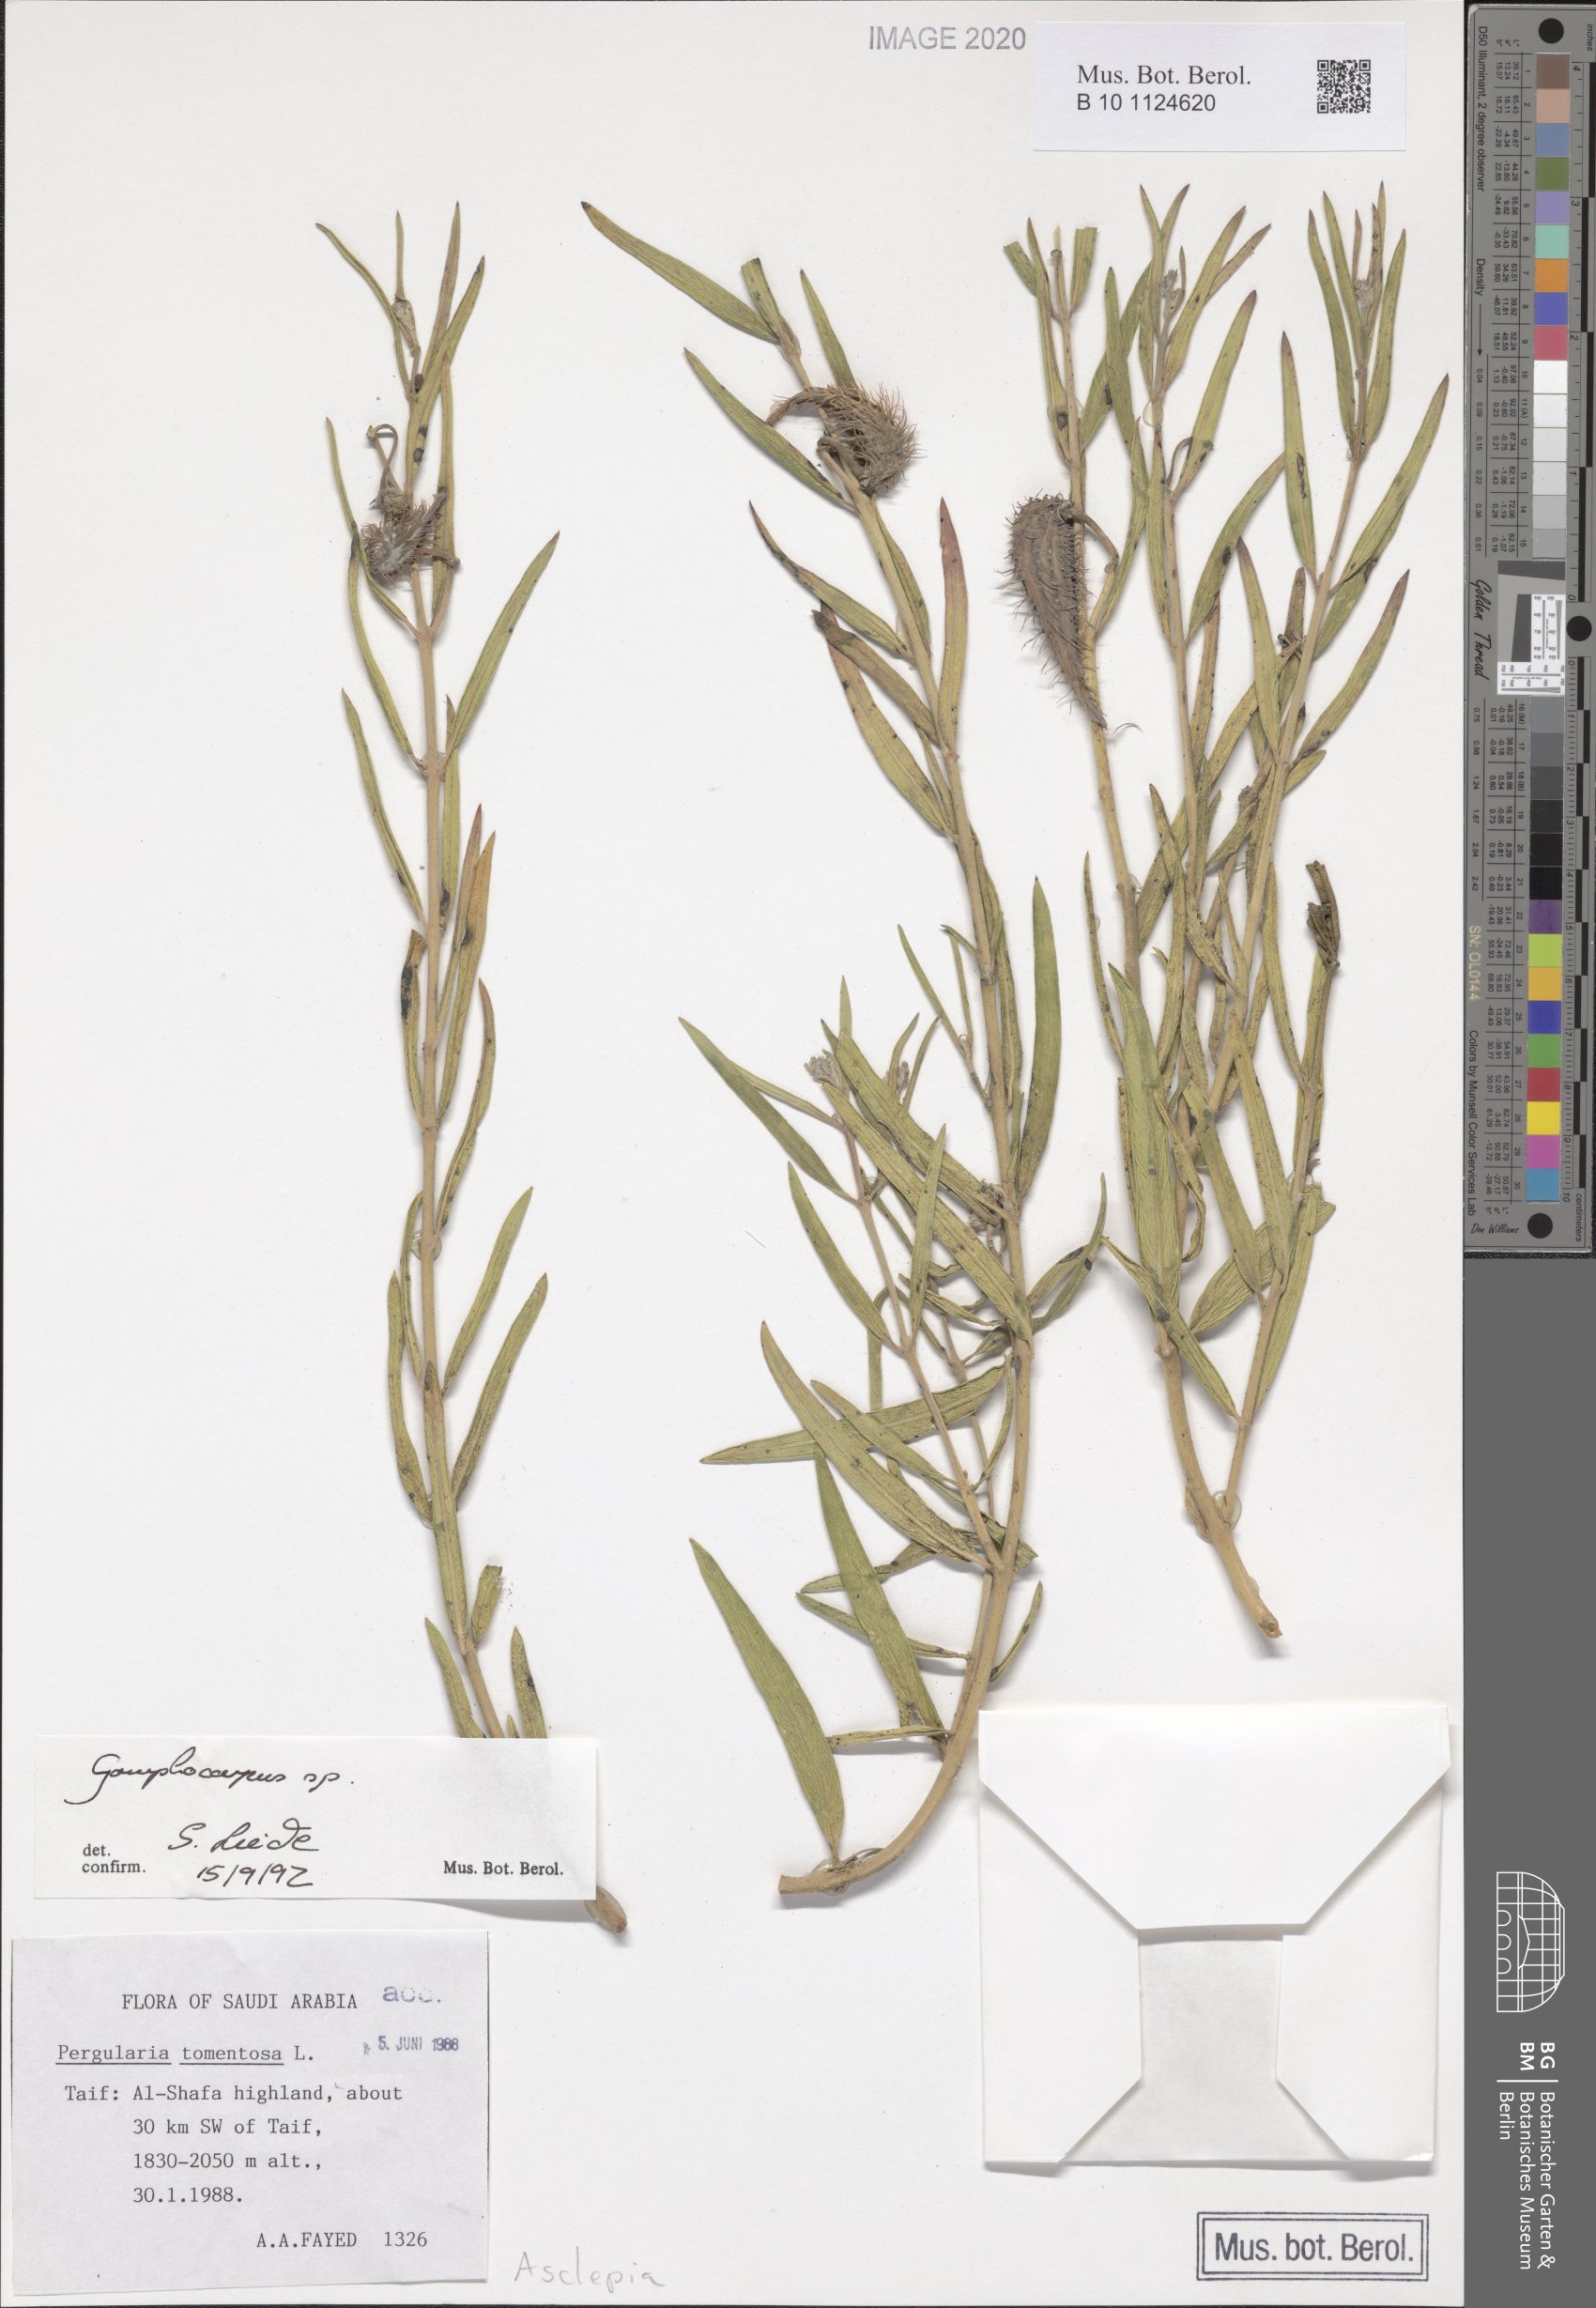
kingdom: Plantae
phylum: Tracheophyta
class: Magnoliopsida
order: Gentianales
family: Apocynaceae
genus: Gomphocarpus
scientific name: Gomphocarpus
